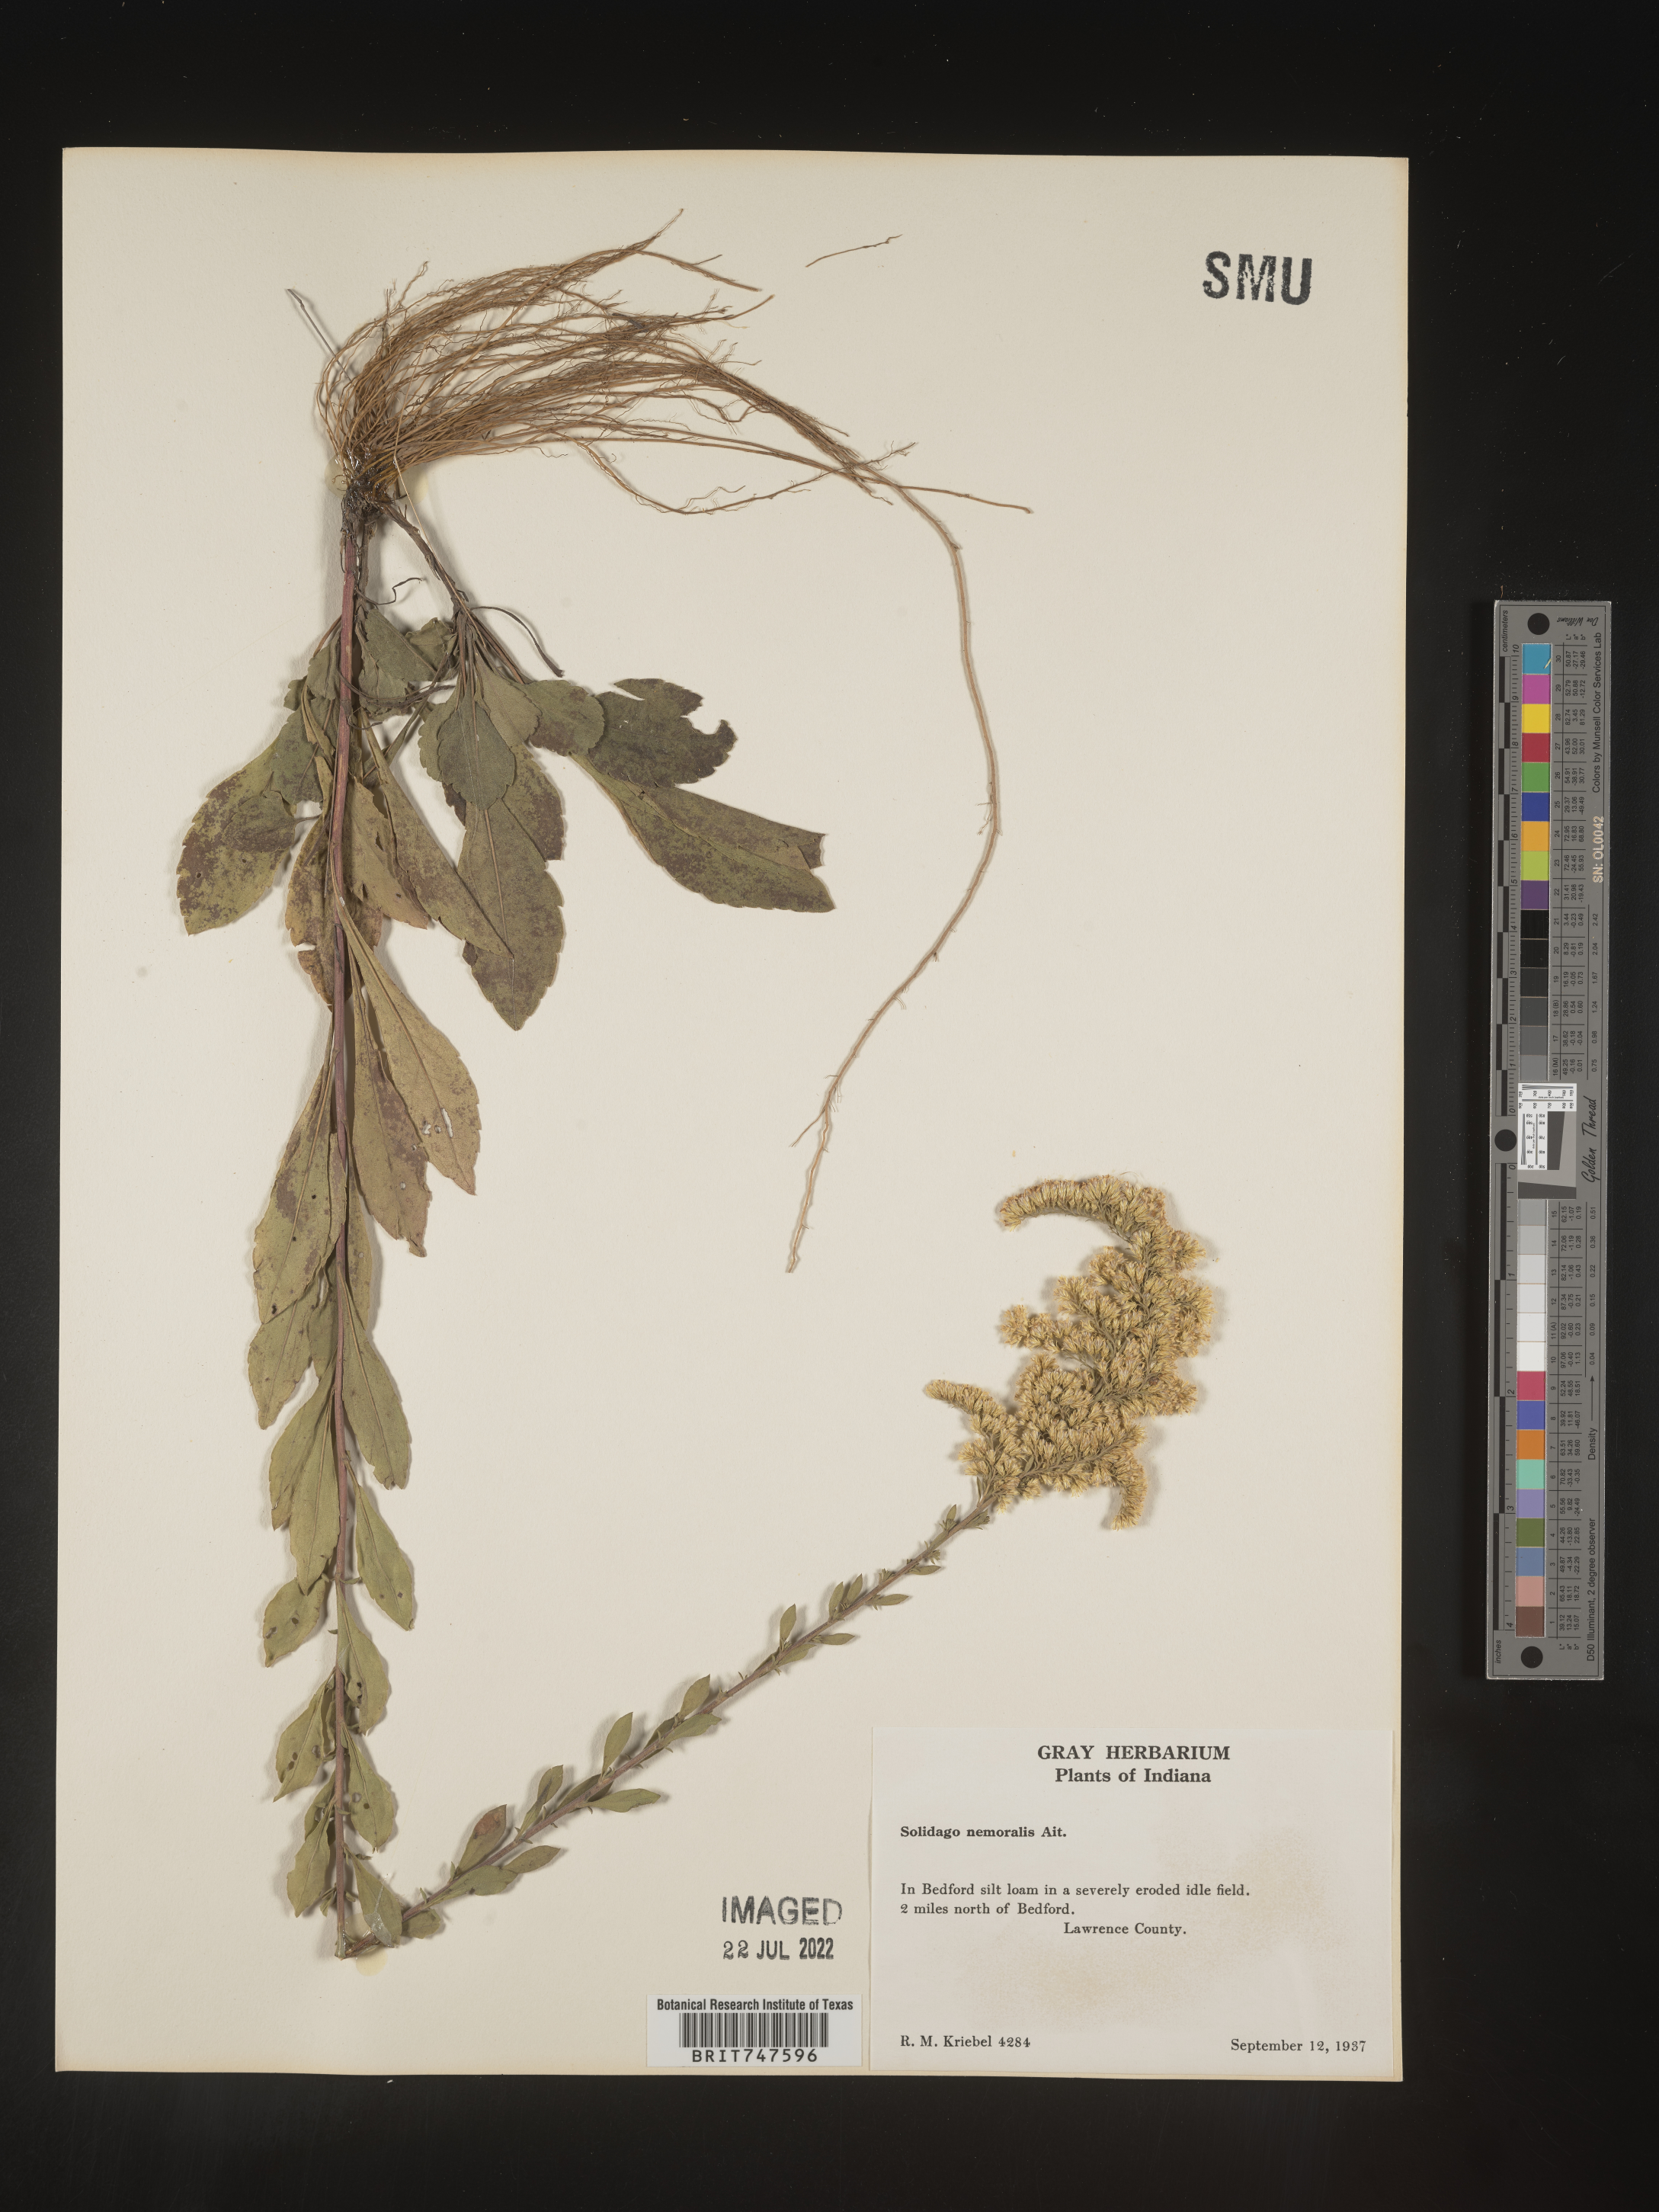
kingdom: Plantae
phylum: Tracheophyta
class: Magnoliopsida
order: Asterales
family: Asteraceae
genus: Solidago
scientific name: Solidago nemoralis
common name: Grey goldenrod
